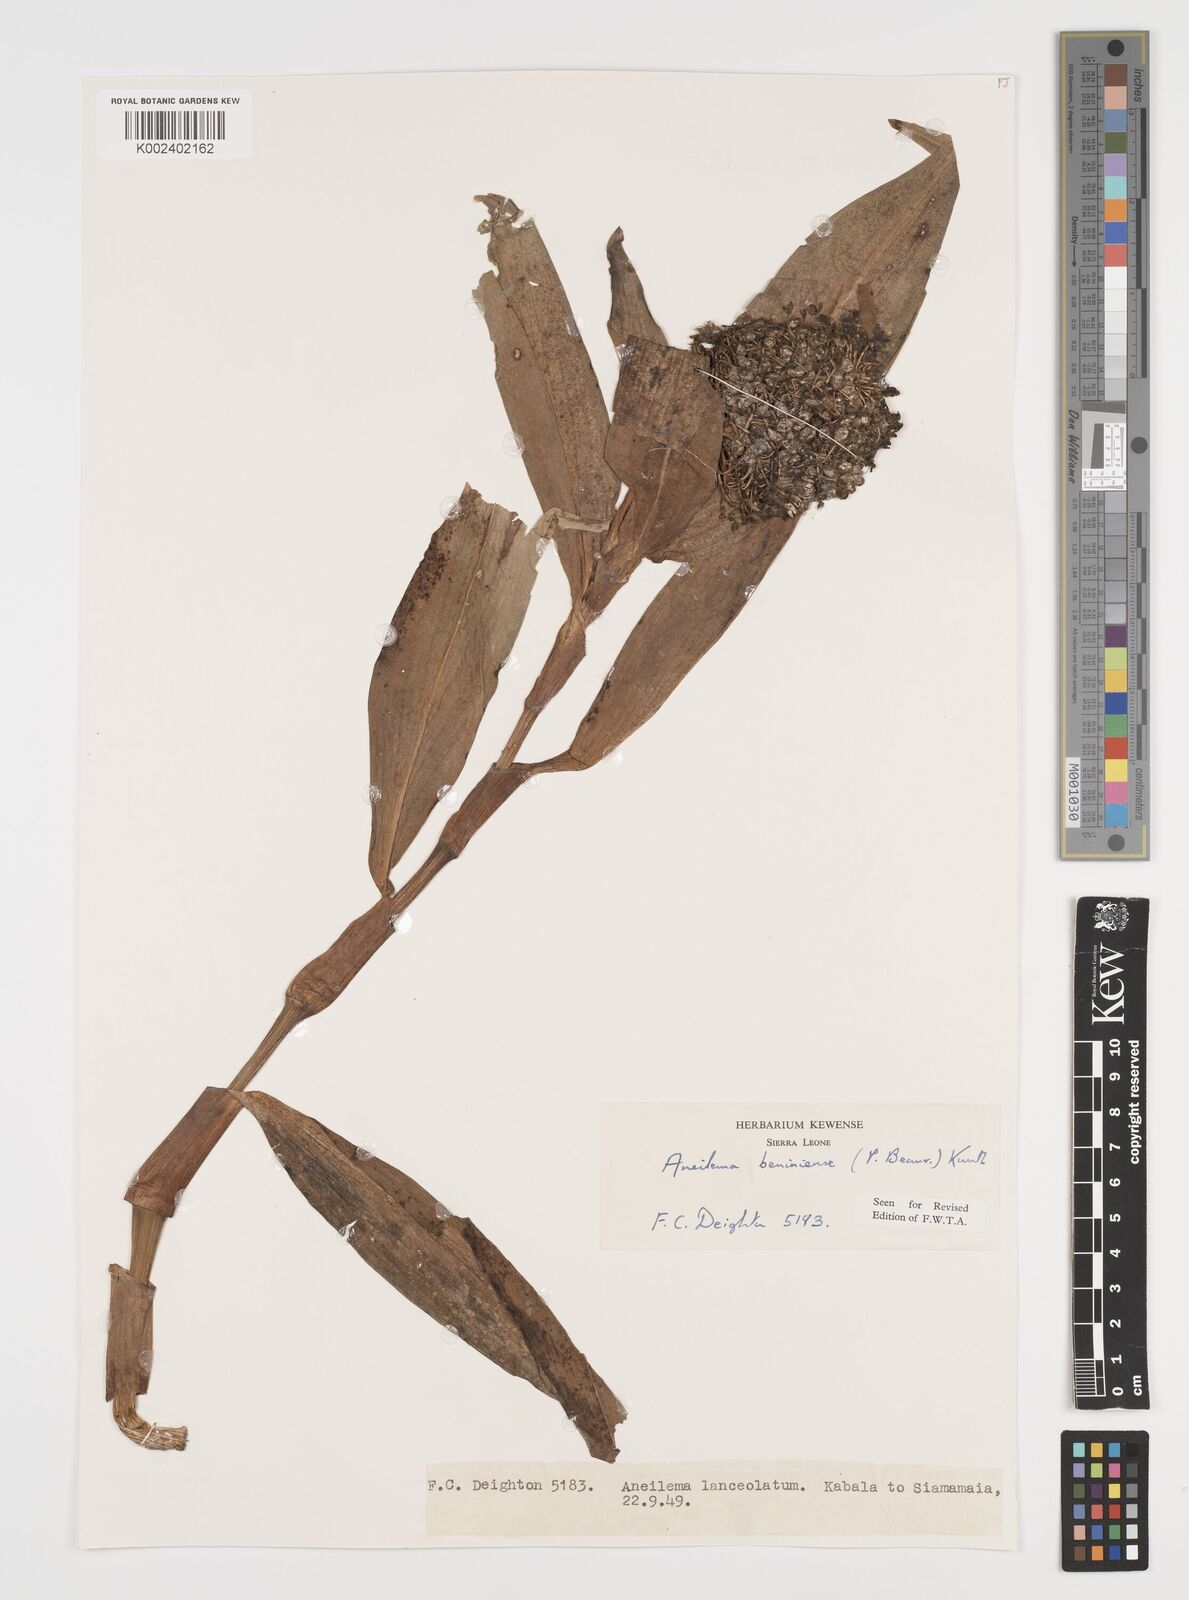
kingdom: Plantae
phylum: Tracheophyta
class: Liliopsida
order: Commelinales
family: Commelinaceae
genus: Aneilema
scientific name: Aneilema beniniense
